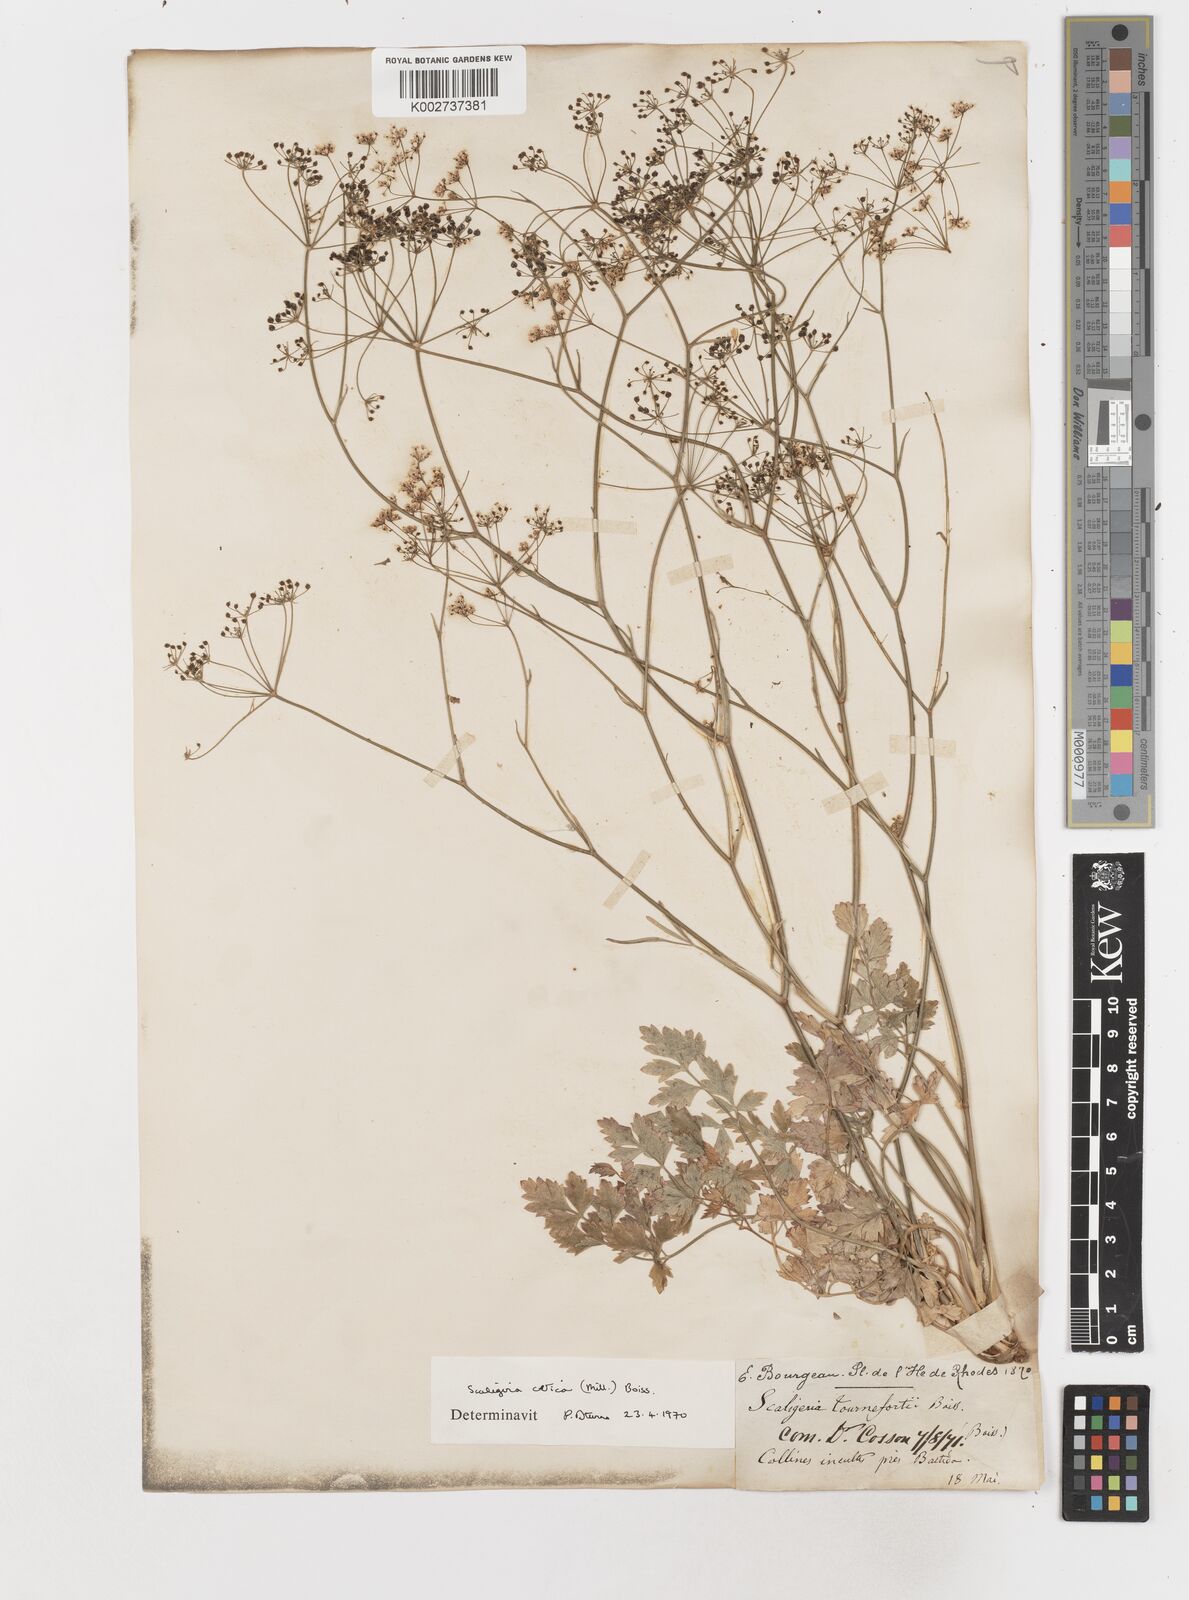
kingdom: Plantae
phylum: Tracheophyta
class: Magnoliopsida
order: Apiales
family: Apiaceae
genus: Scaligeria
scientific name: Scaligeria
